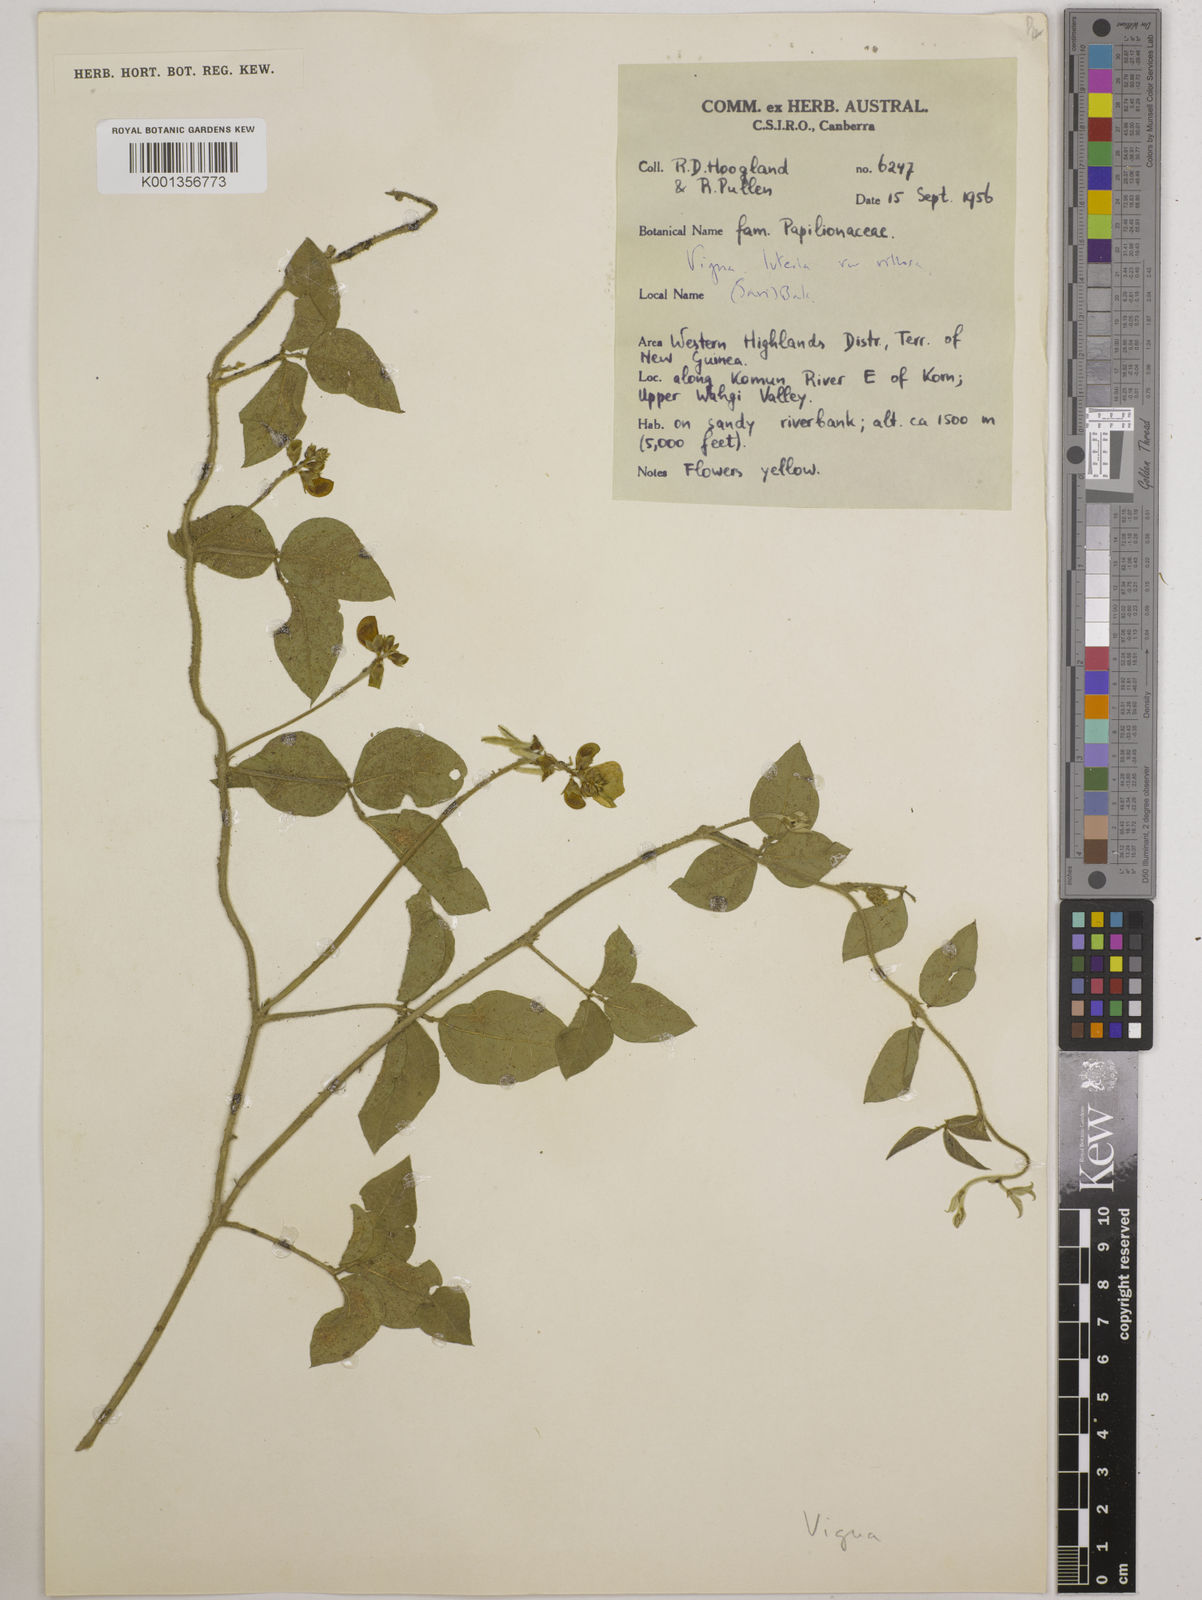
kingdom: Plantae
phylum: Tracheophyta
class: Magnoliopsida
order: Fabales
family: Fabaceae
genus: Vigna
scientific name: Vigna luteola
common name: Hairypod cowpea
